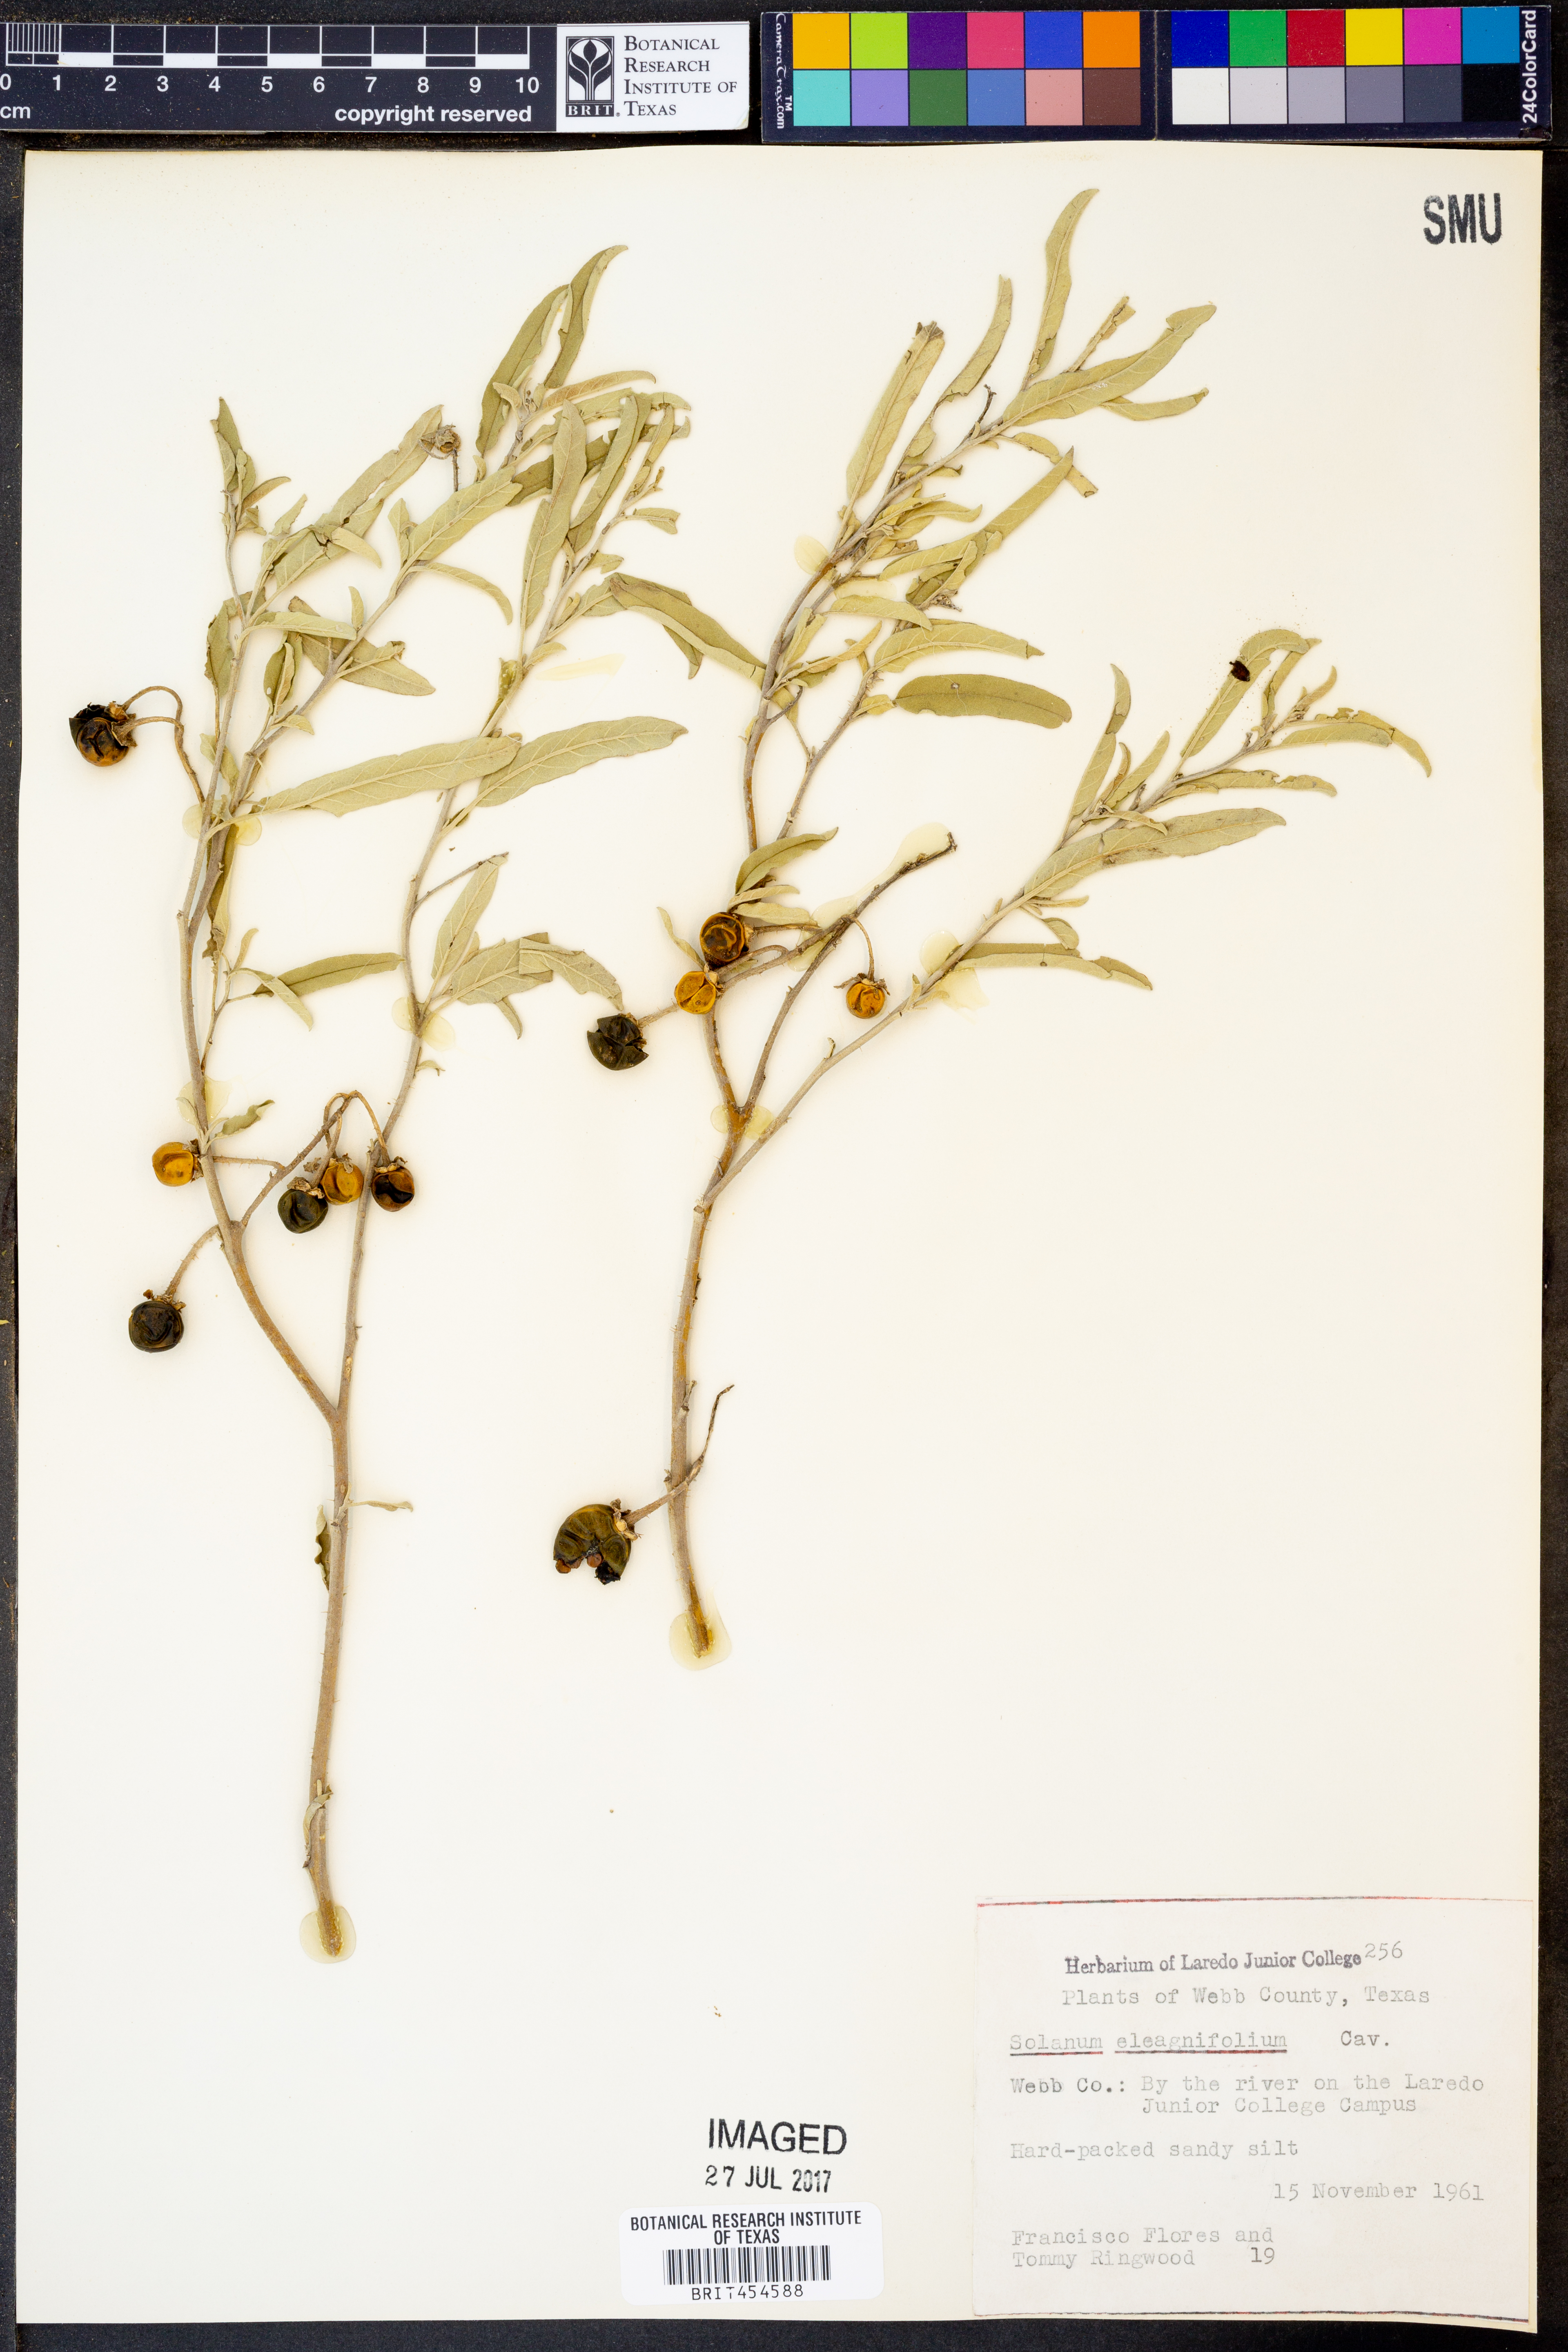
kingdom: Plantae
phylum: Tracheophyta
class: Magnoliopsida
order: Solanales
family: Solanaceae
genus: Solanum
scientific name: Solanum elaeagnifolium
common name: Silverleaf nightshade
